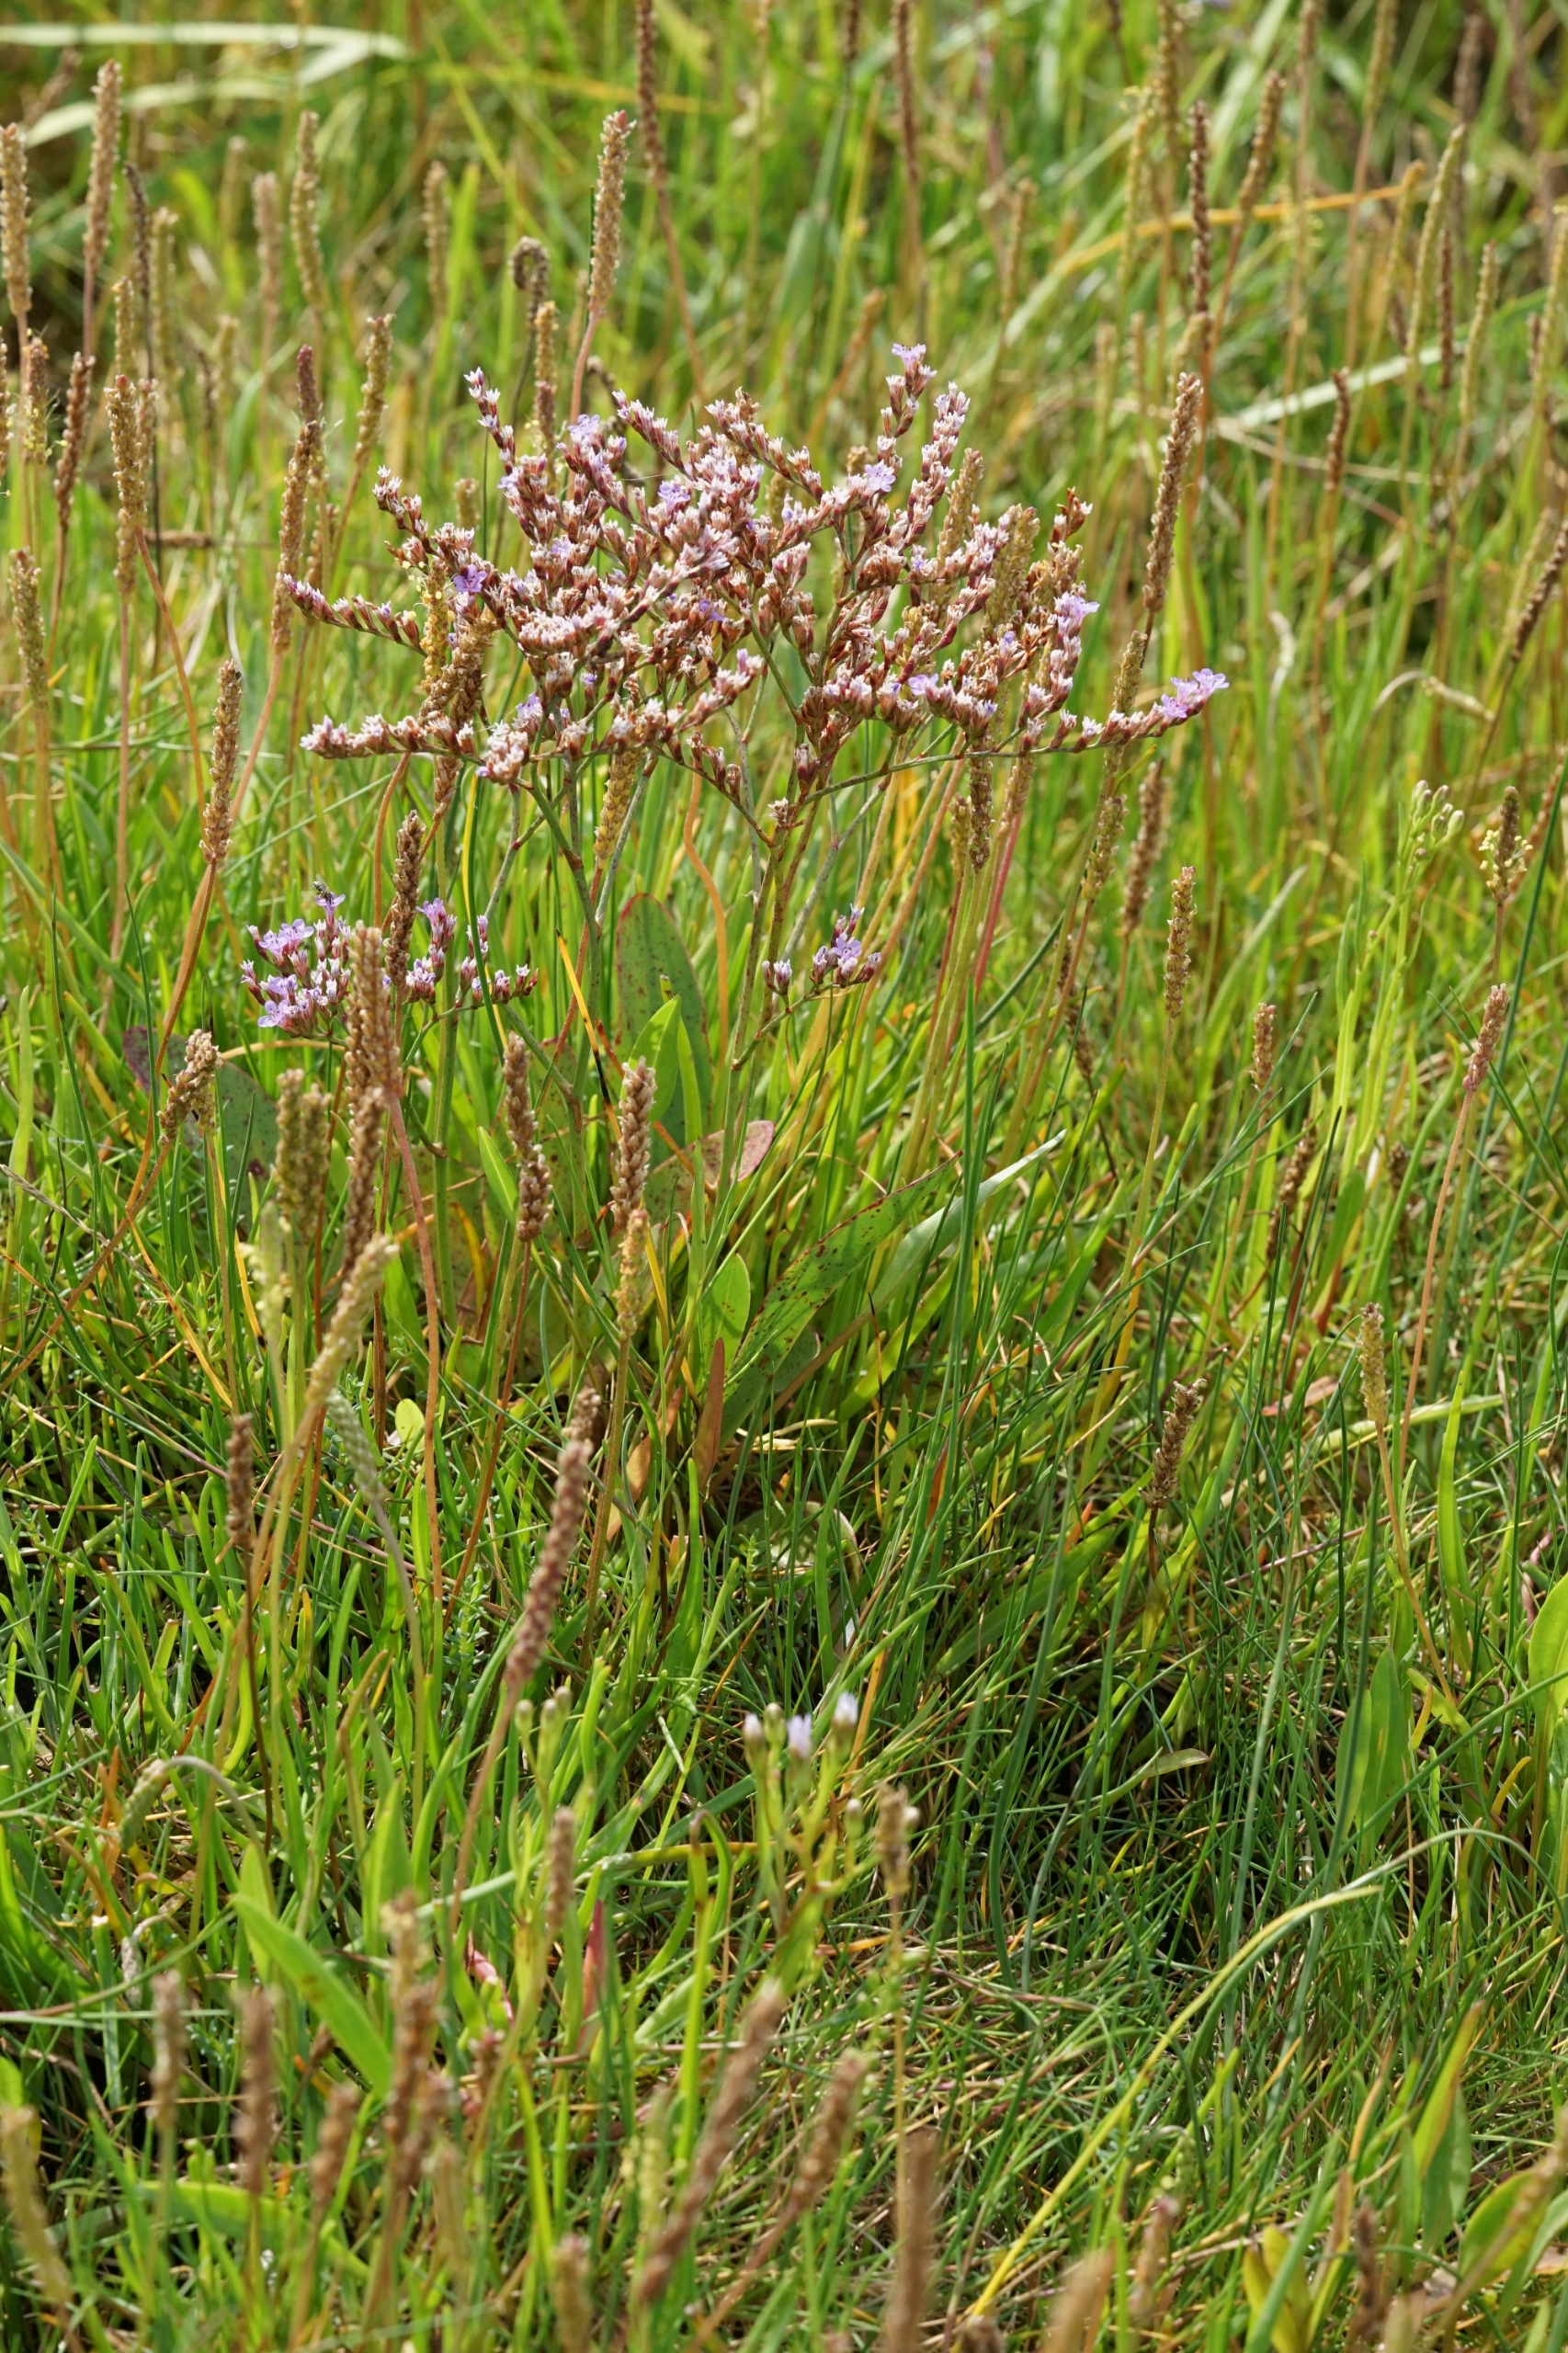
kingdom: Plantae
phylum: Tracheophyta
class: Magnoliopsida
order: Caryophyllales
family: Plumbaginaceae
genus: Limonium
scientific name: Limonium humile
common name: Lav hindebæger
